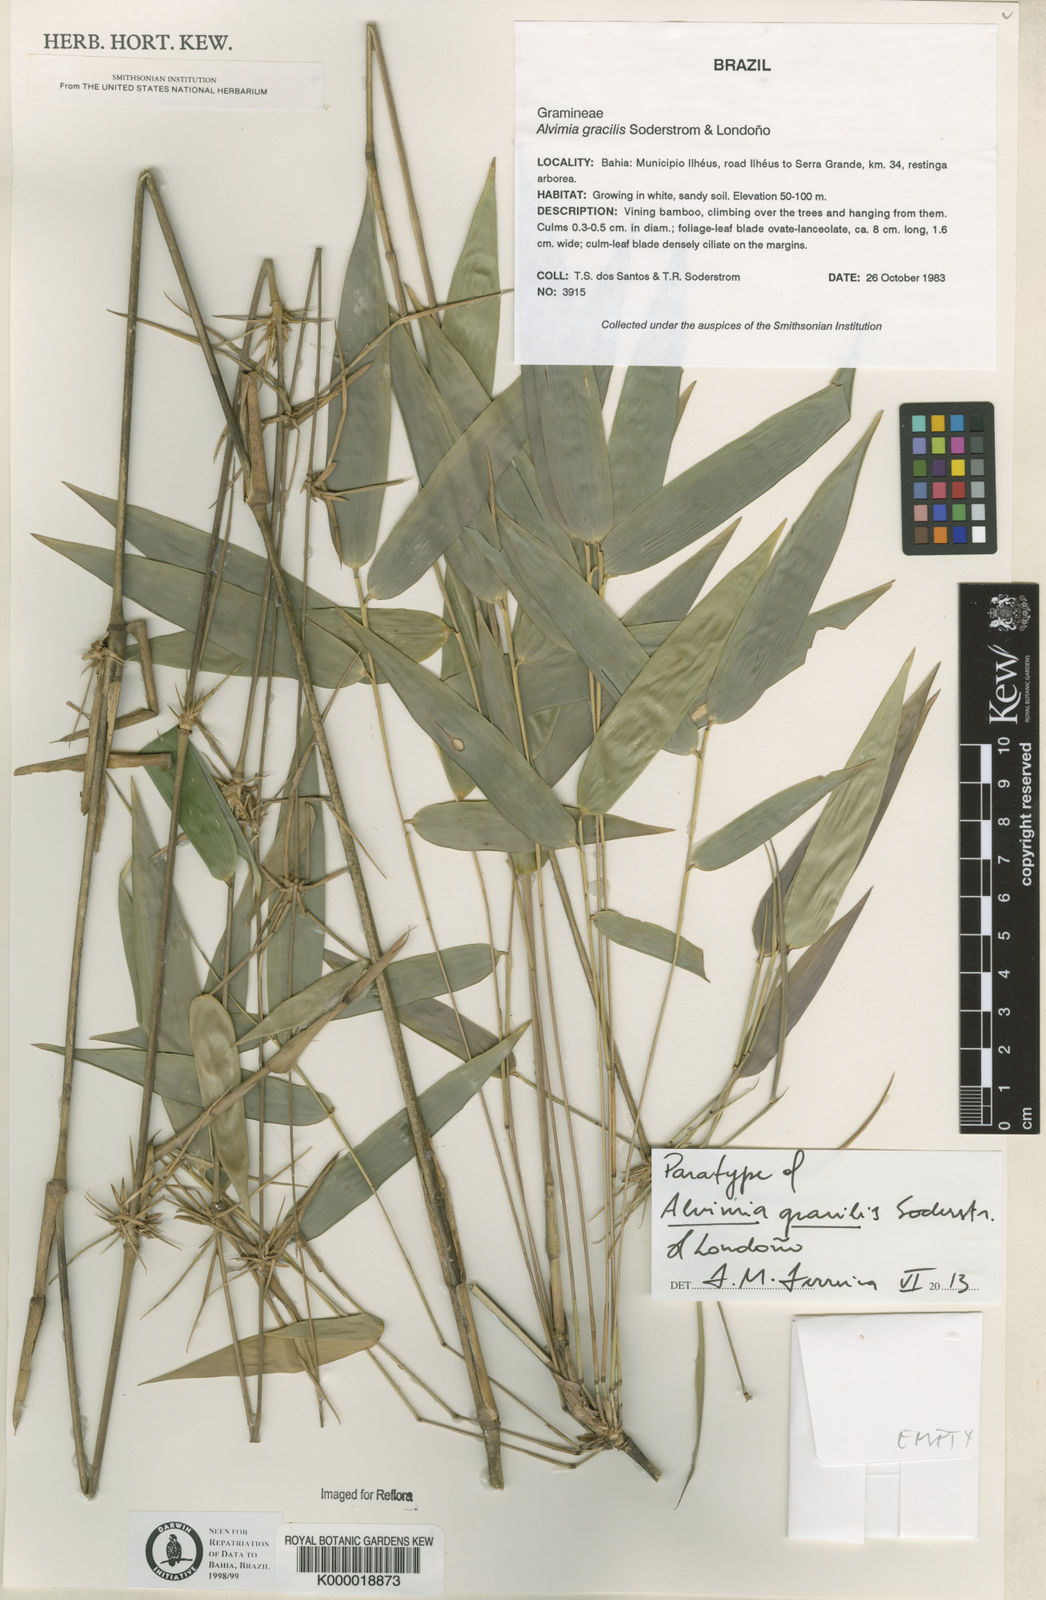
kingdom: Plantae
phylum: Tracheophyta
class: Liliopsida
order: Poales
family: Poaceae
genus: Alvimia
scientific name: Alvimia
